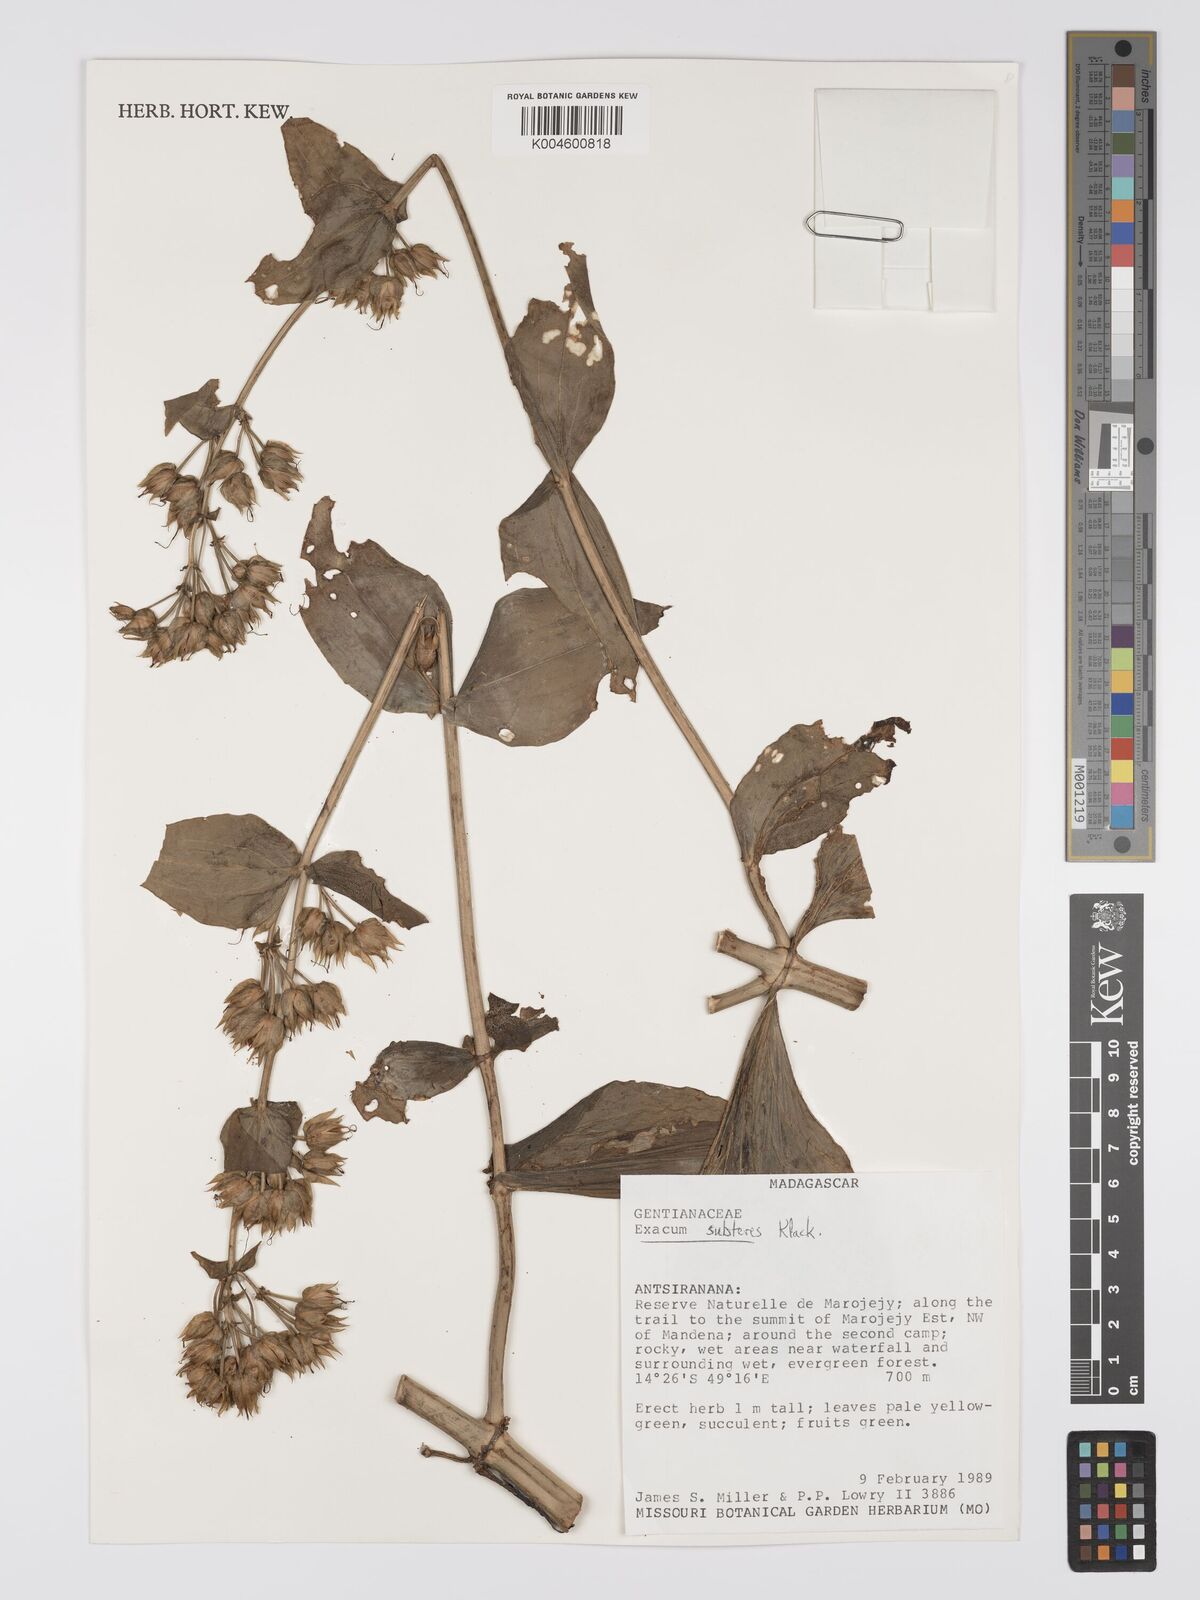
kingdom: Plantae
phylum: Tracheophyta
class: Magnoliopsida
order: Gentianales
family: Gentianaceae
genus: Exacum
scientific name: Exacum subteres
